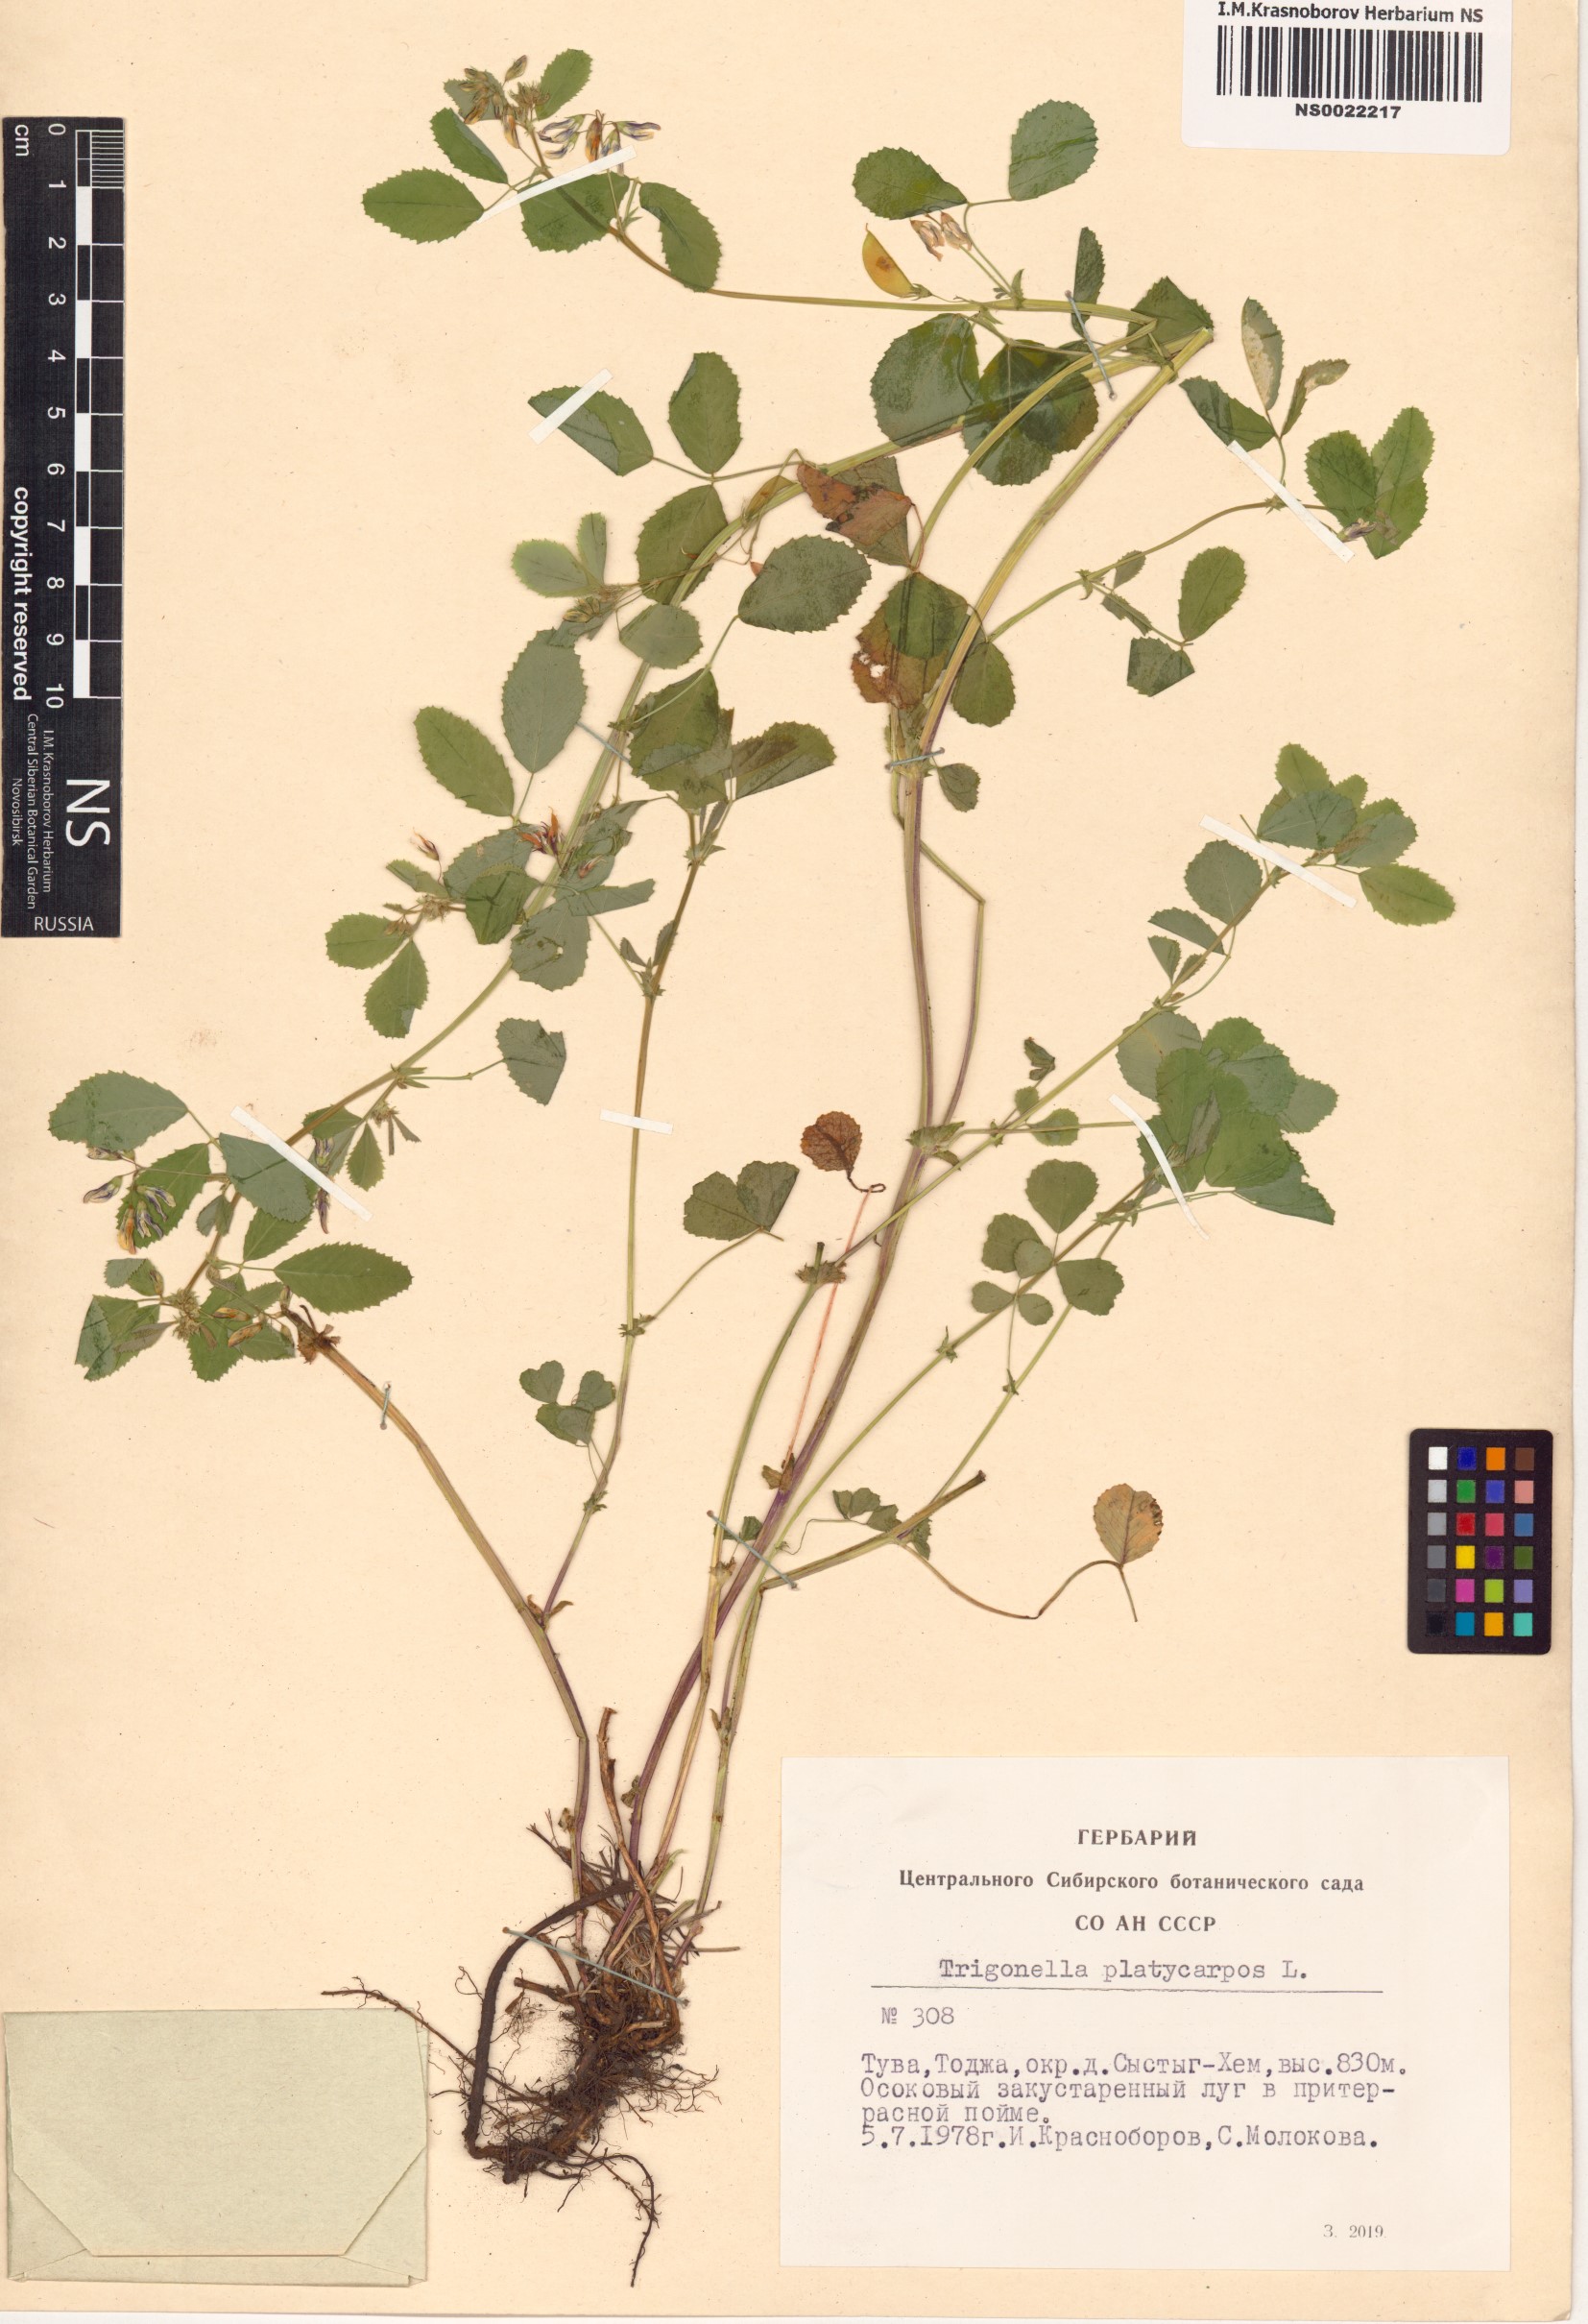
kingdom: Plantae
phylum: Tracheophyta
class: Magnoliopsida
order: Fabales
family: Fabaceae
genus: Medicago
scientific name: Medicago platycarpos
